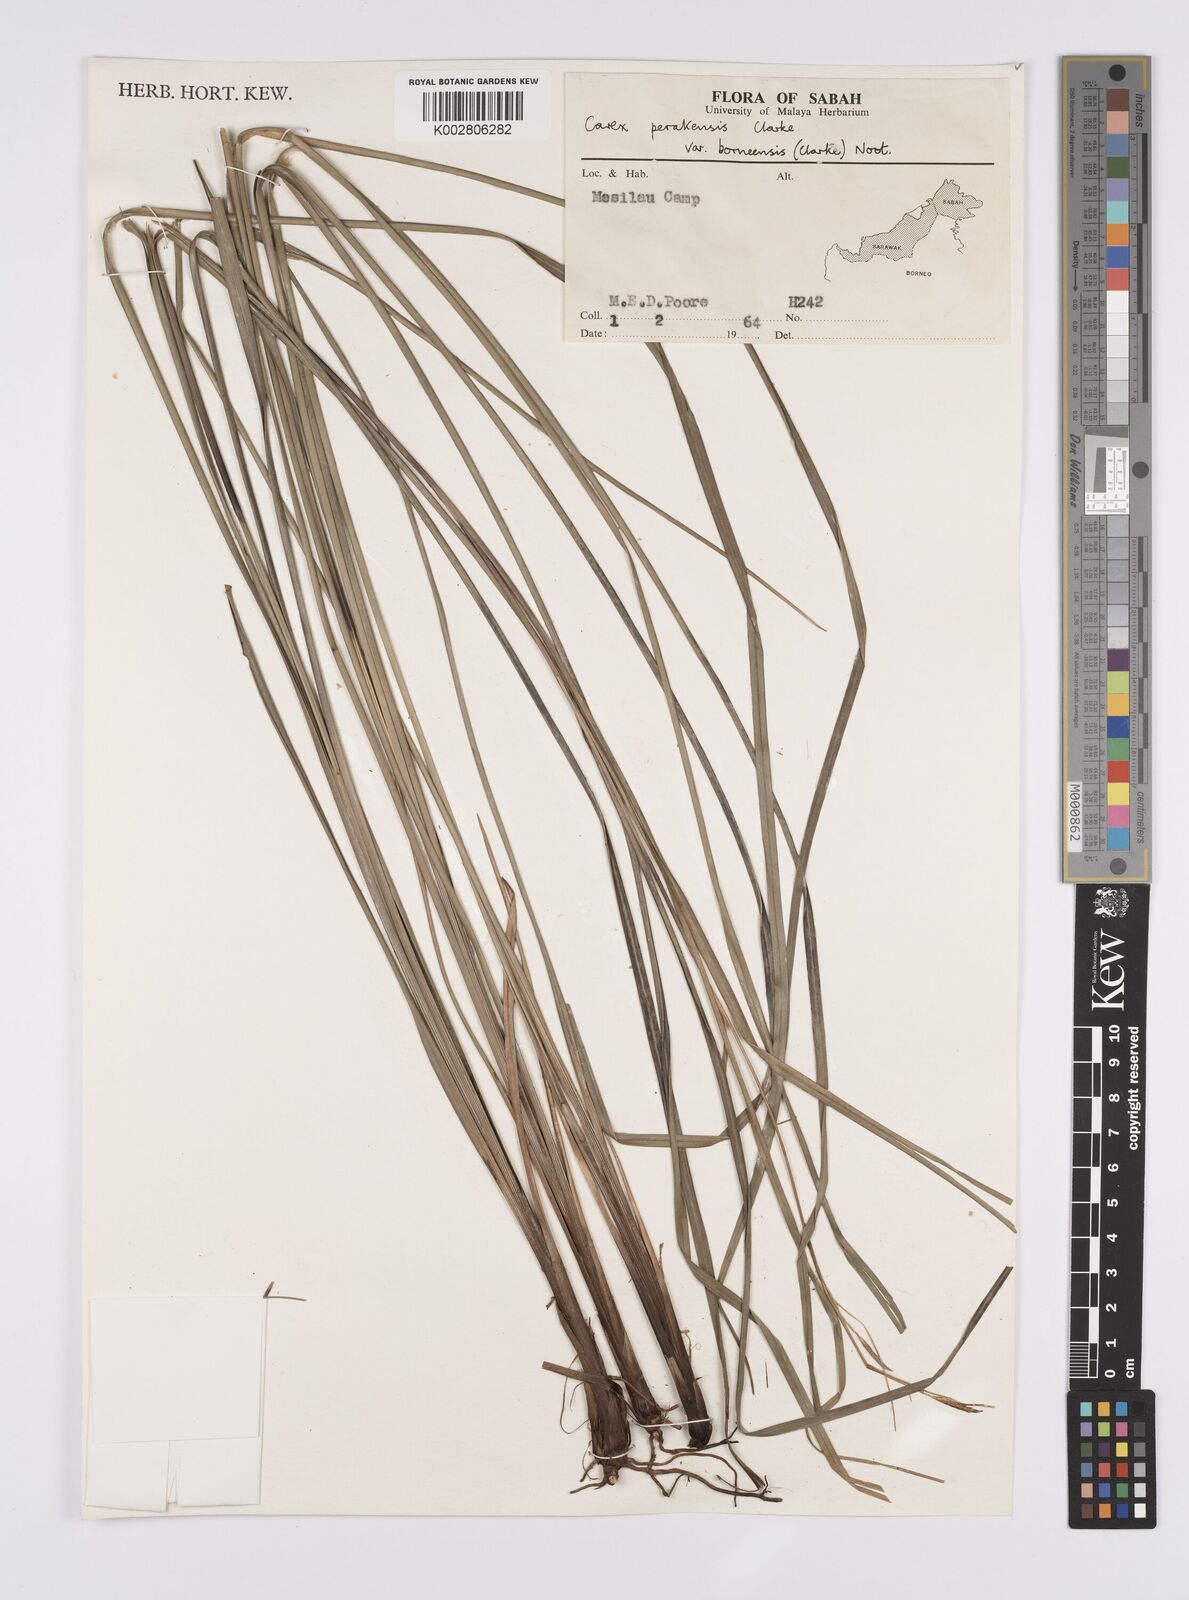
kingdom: Plantae
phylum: Tracheophyta
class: Liliopsida
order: Poales
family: Cyperaceae
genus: Carex
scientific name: Carex perakensis
